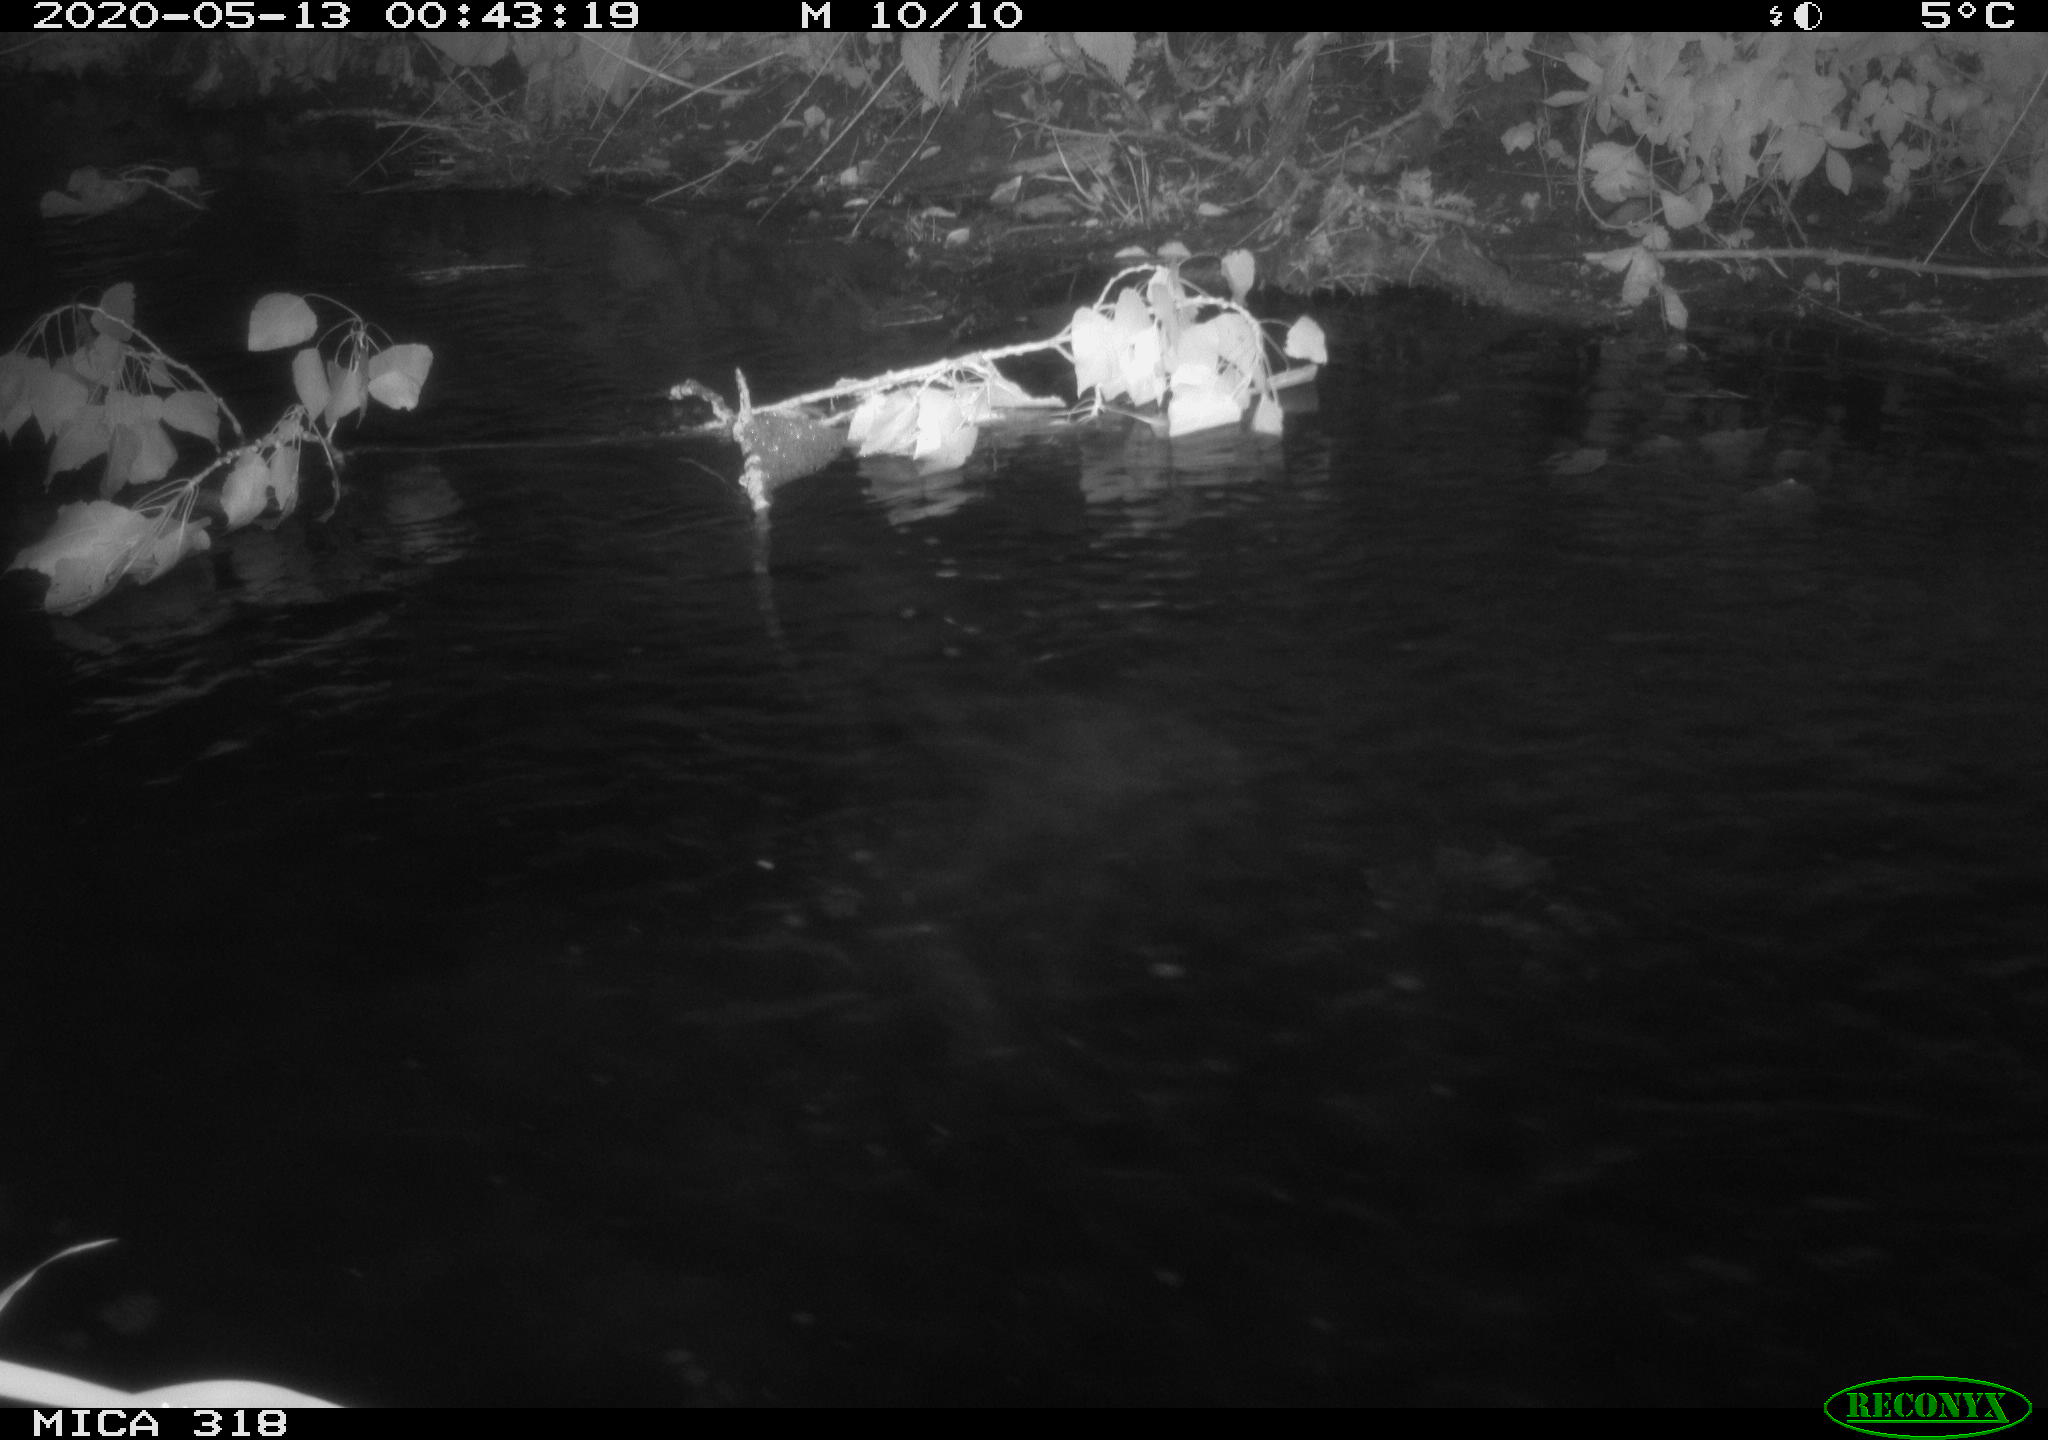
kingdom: Animalia
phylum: Chordata
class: Aves
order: Anseriformes
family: Anatidae
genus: Anas
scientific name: Anas platyrhynchos
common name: Mallard
